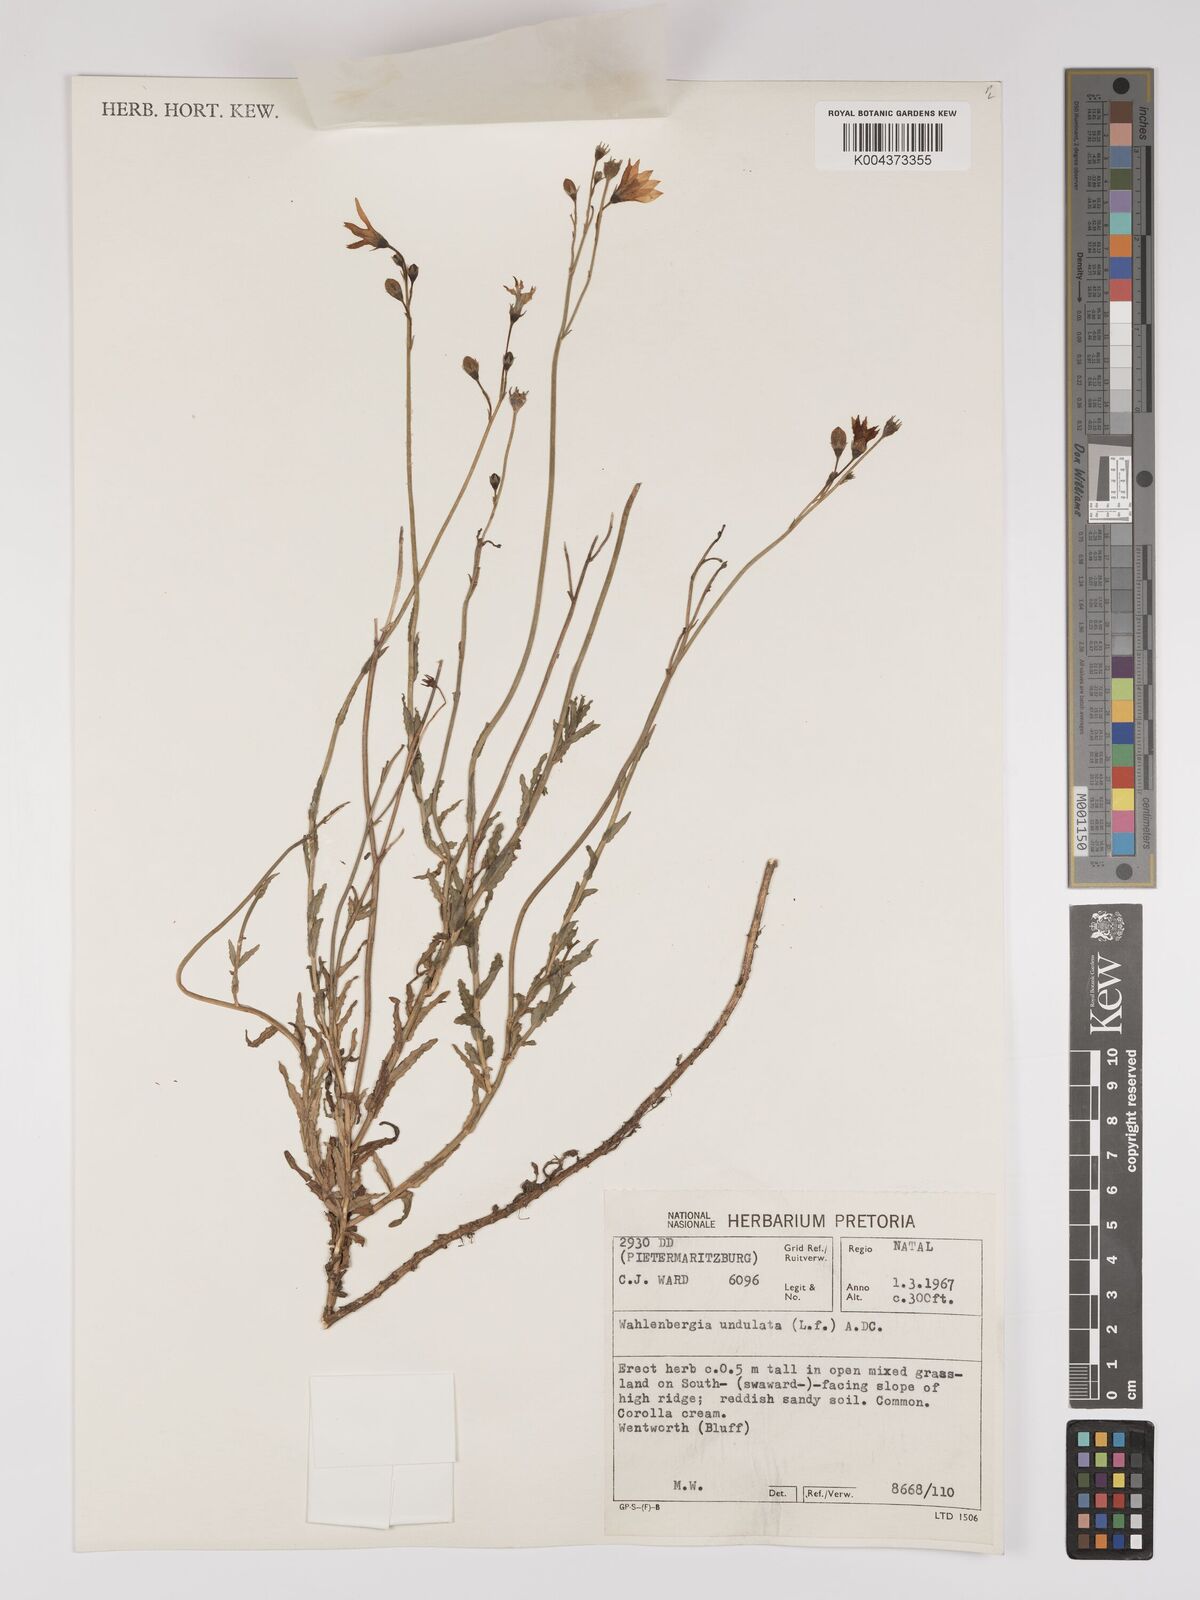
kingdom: Plantae
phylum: Tracheophyta
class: Magnoliopsida
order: Asterales
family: Campanulaceae
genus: Wahlenbergia
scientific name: Wahlenbergia undulata
